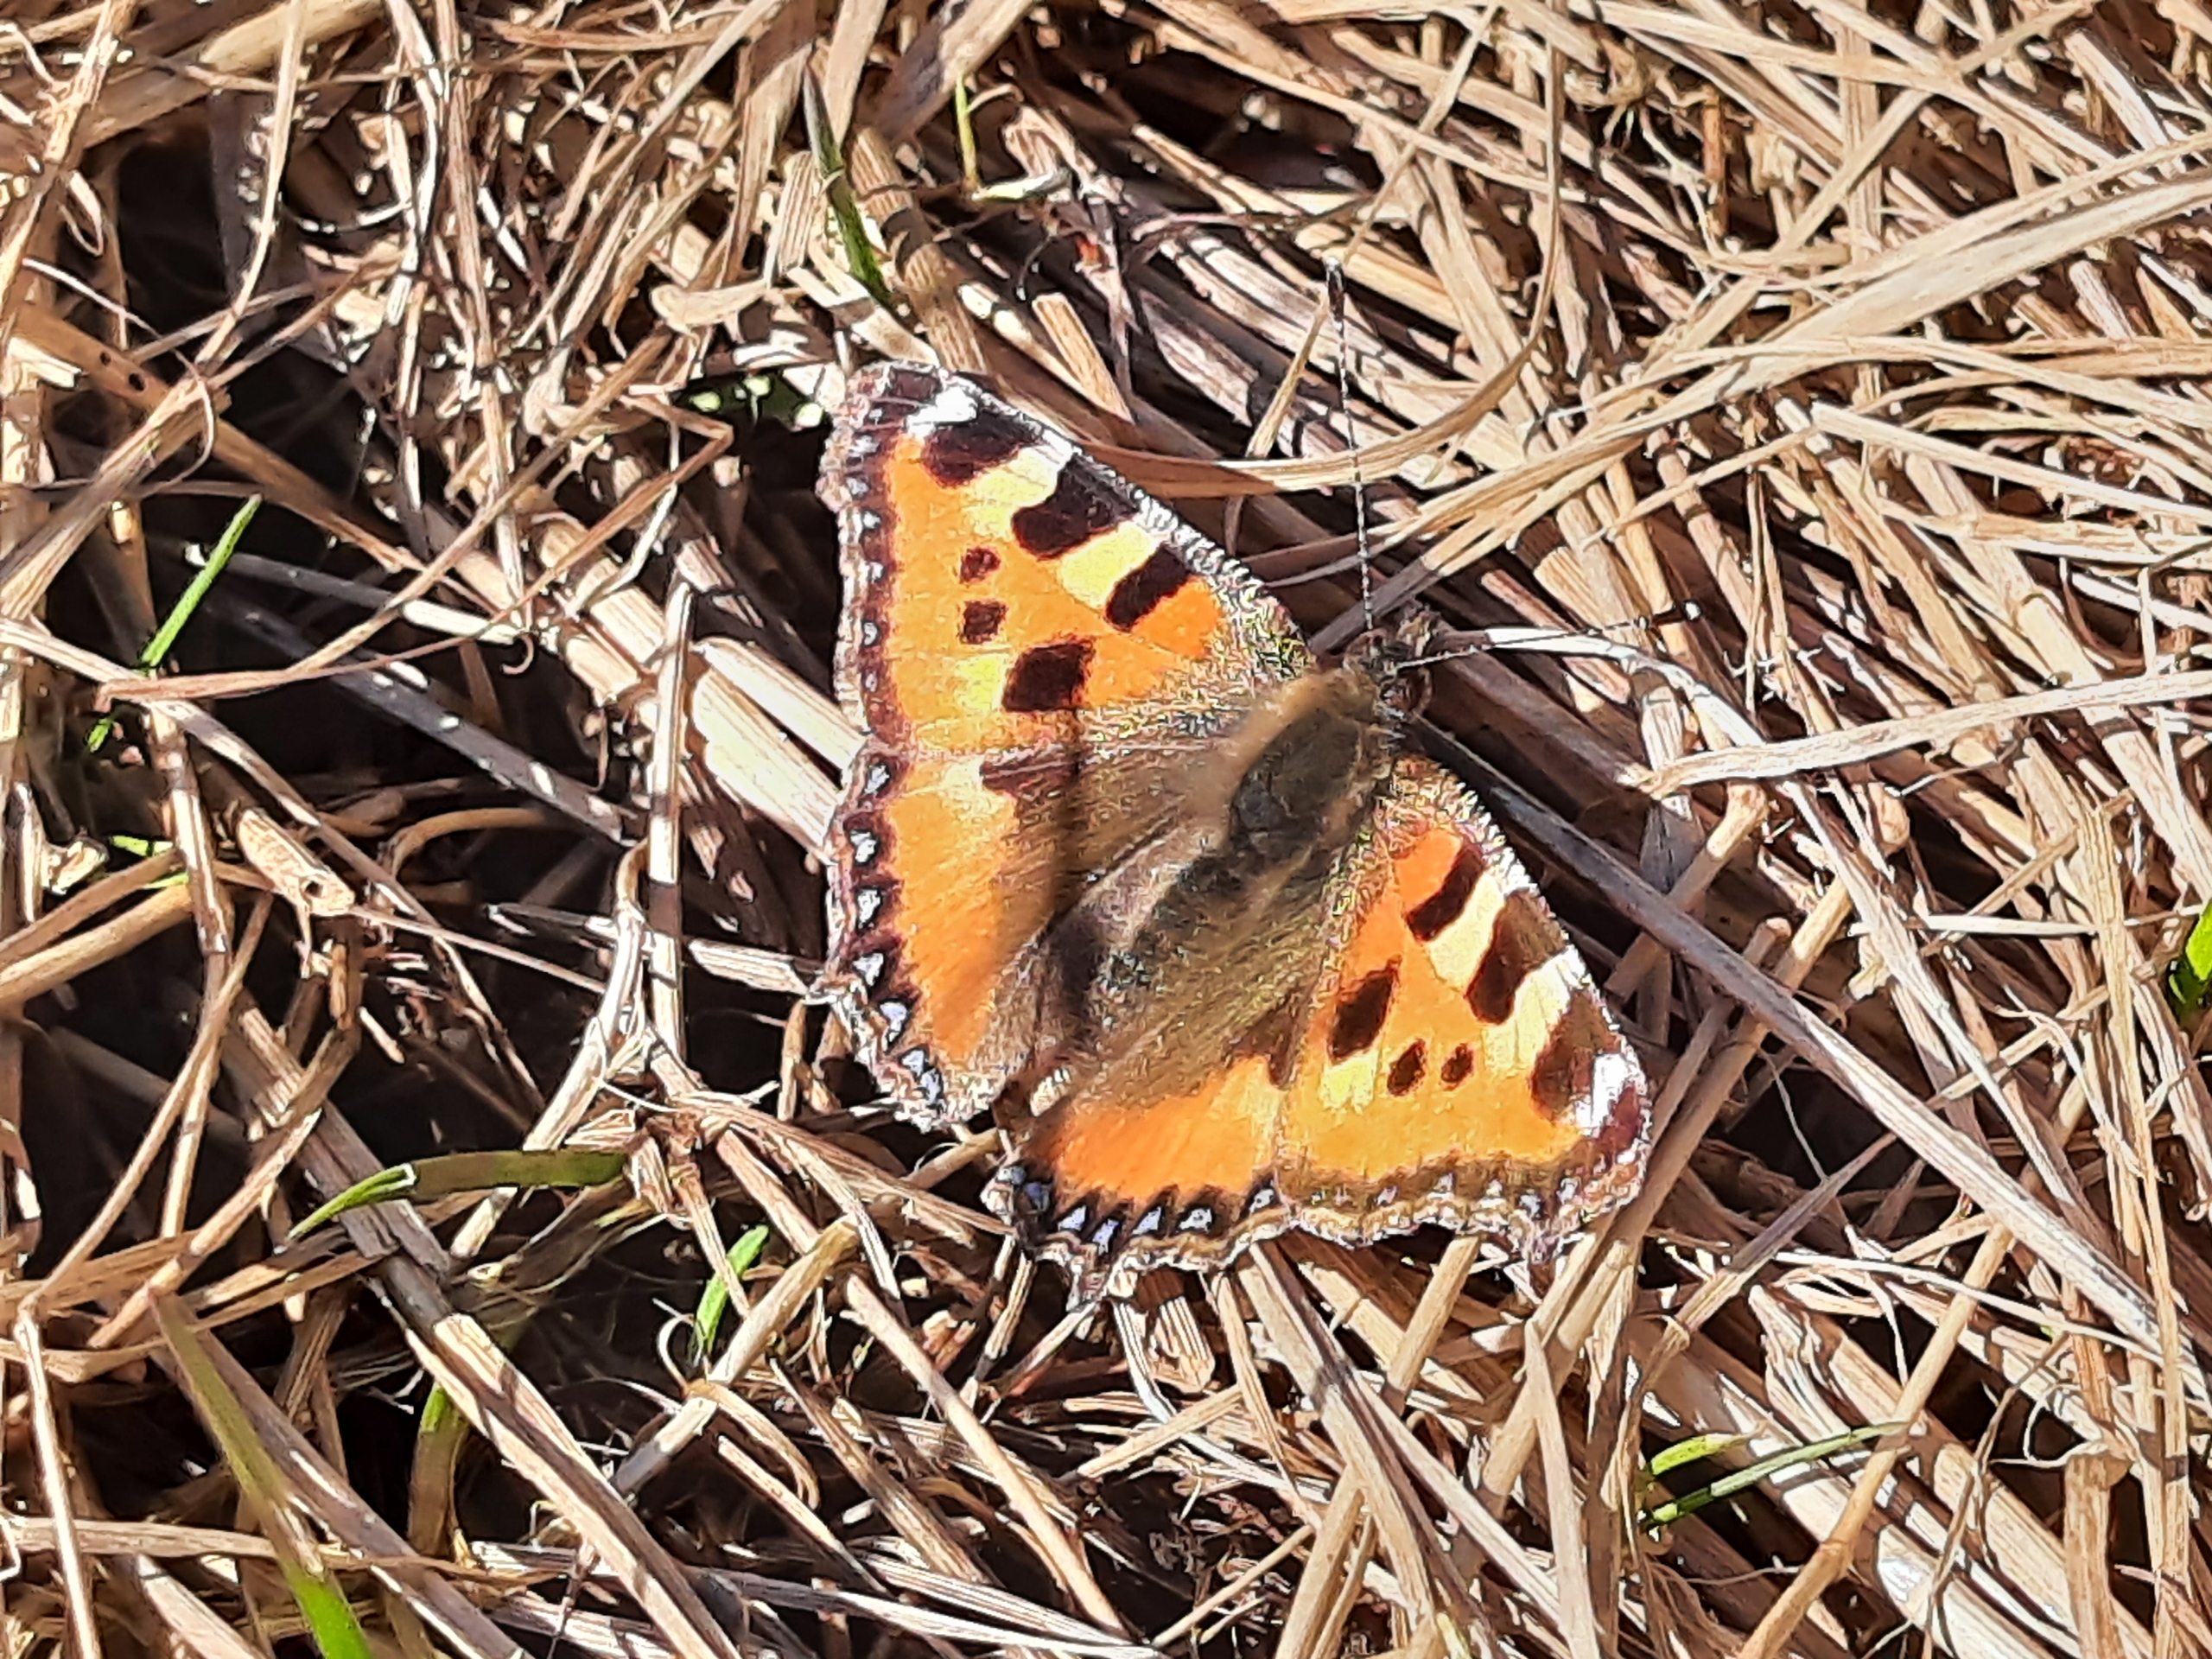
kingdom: Animalia
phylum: Arthropoda
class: Insecta
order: Lepidoptera
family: Nymphalidae
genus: Aglais
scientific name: Aglais urticae
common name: Nældens takvinge
